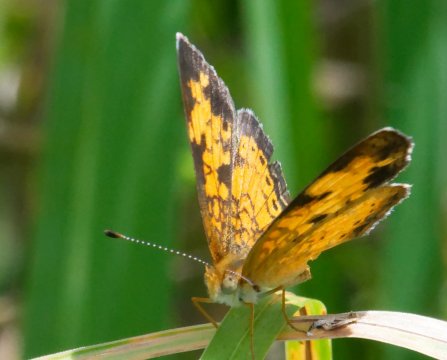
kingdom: Animalia
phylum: Arthropoda
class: Insecta
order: Lepidoptera
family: Nymphalidae
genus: Phyciodes
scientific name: Phyciodes tharos
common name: Pearl Crescent
